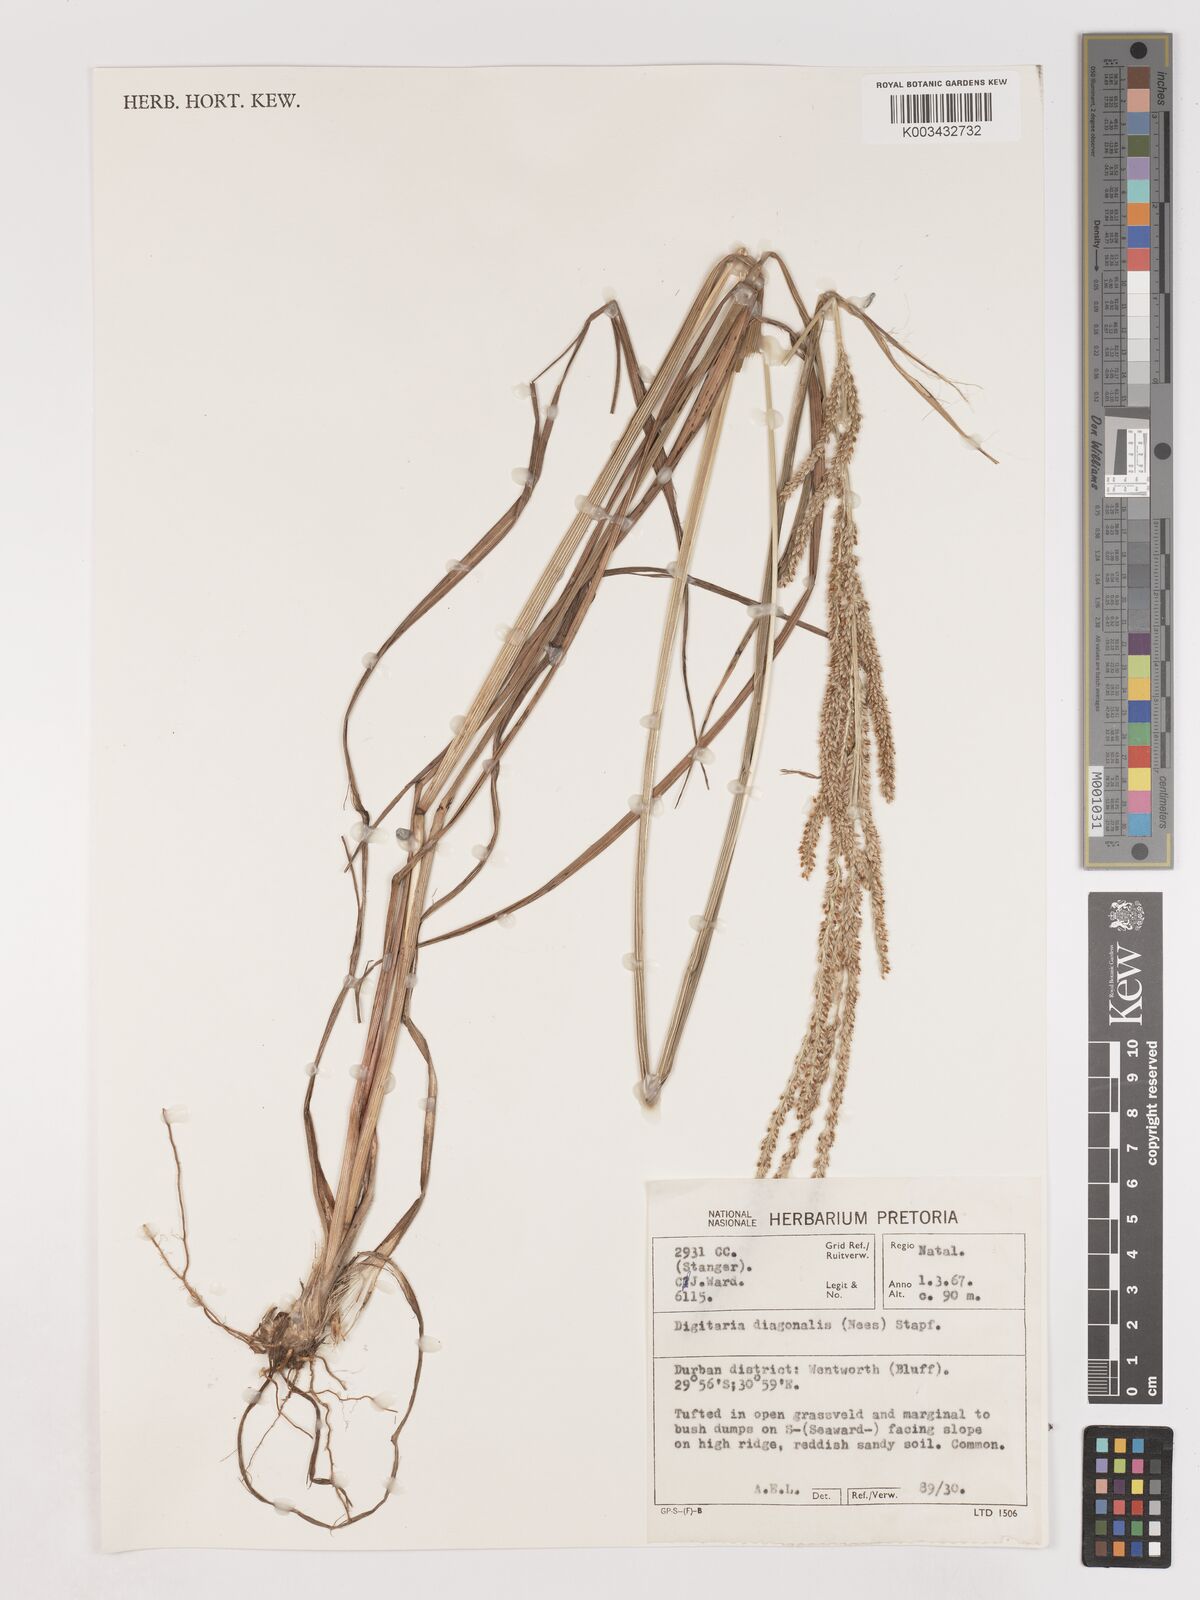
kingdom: Plantae
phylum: Tracheophyta
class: Liliopsida
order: Poales
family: Poaceae
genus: Digitaria
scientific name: Digitaria diagonalis
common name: Brown-seed finger grass
